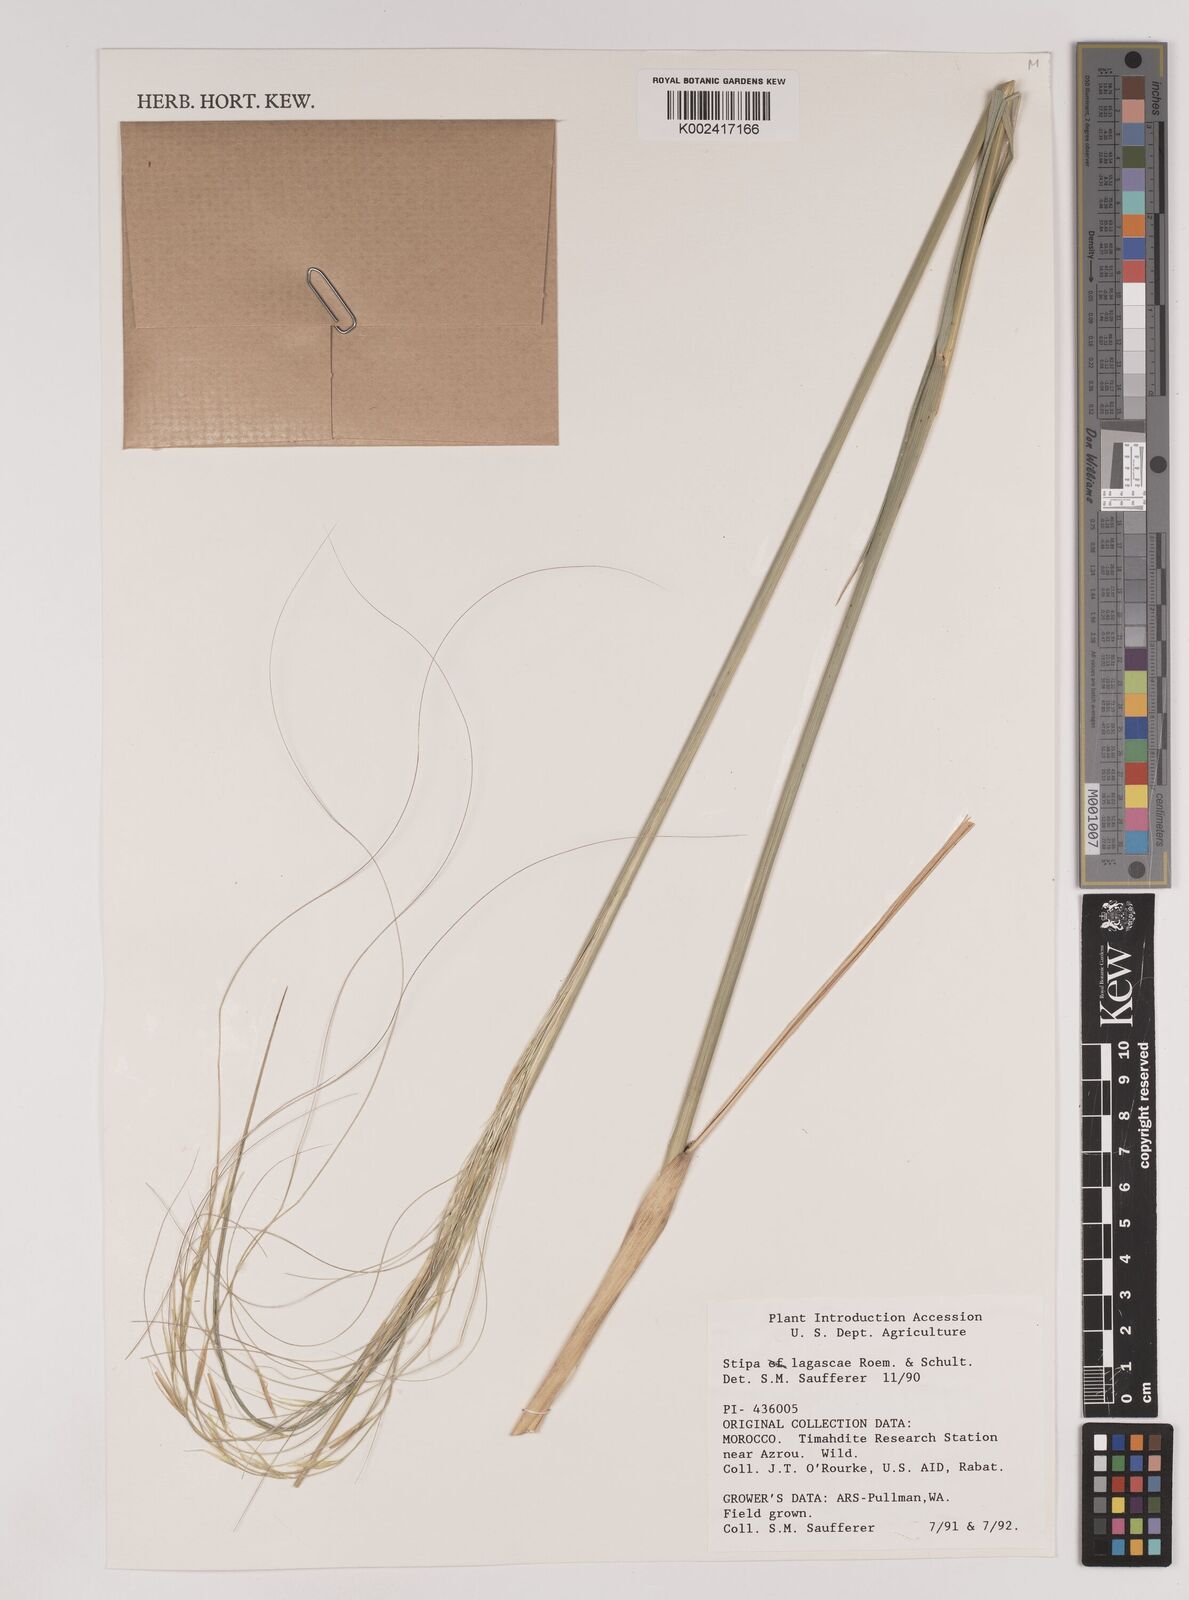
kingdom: Plantae
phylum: Tracheophyta
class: Liliopsida
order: Poales
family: Poaceae
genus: Stipa
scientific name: Stipa lagascae
